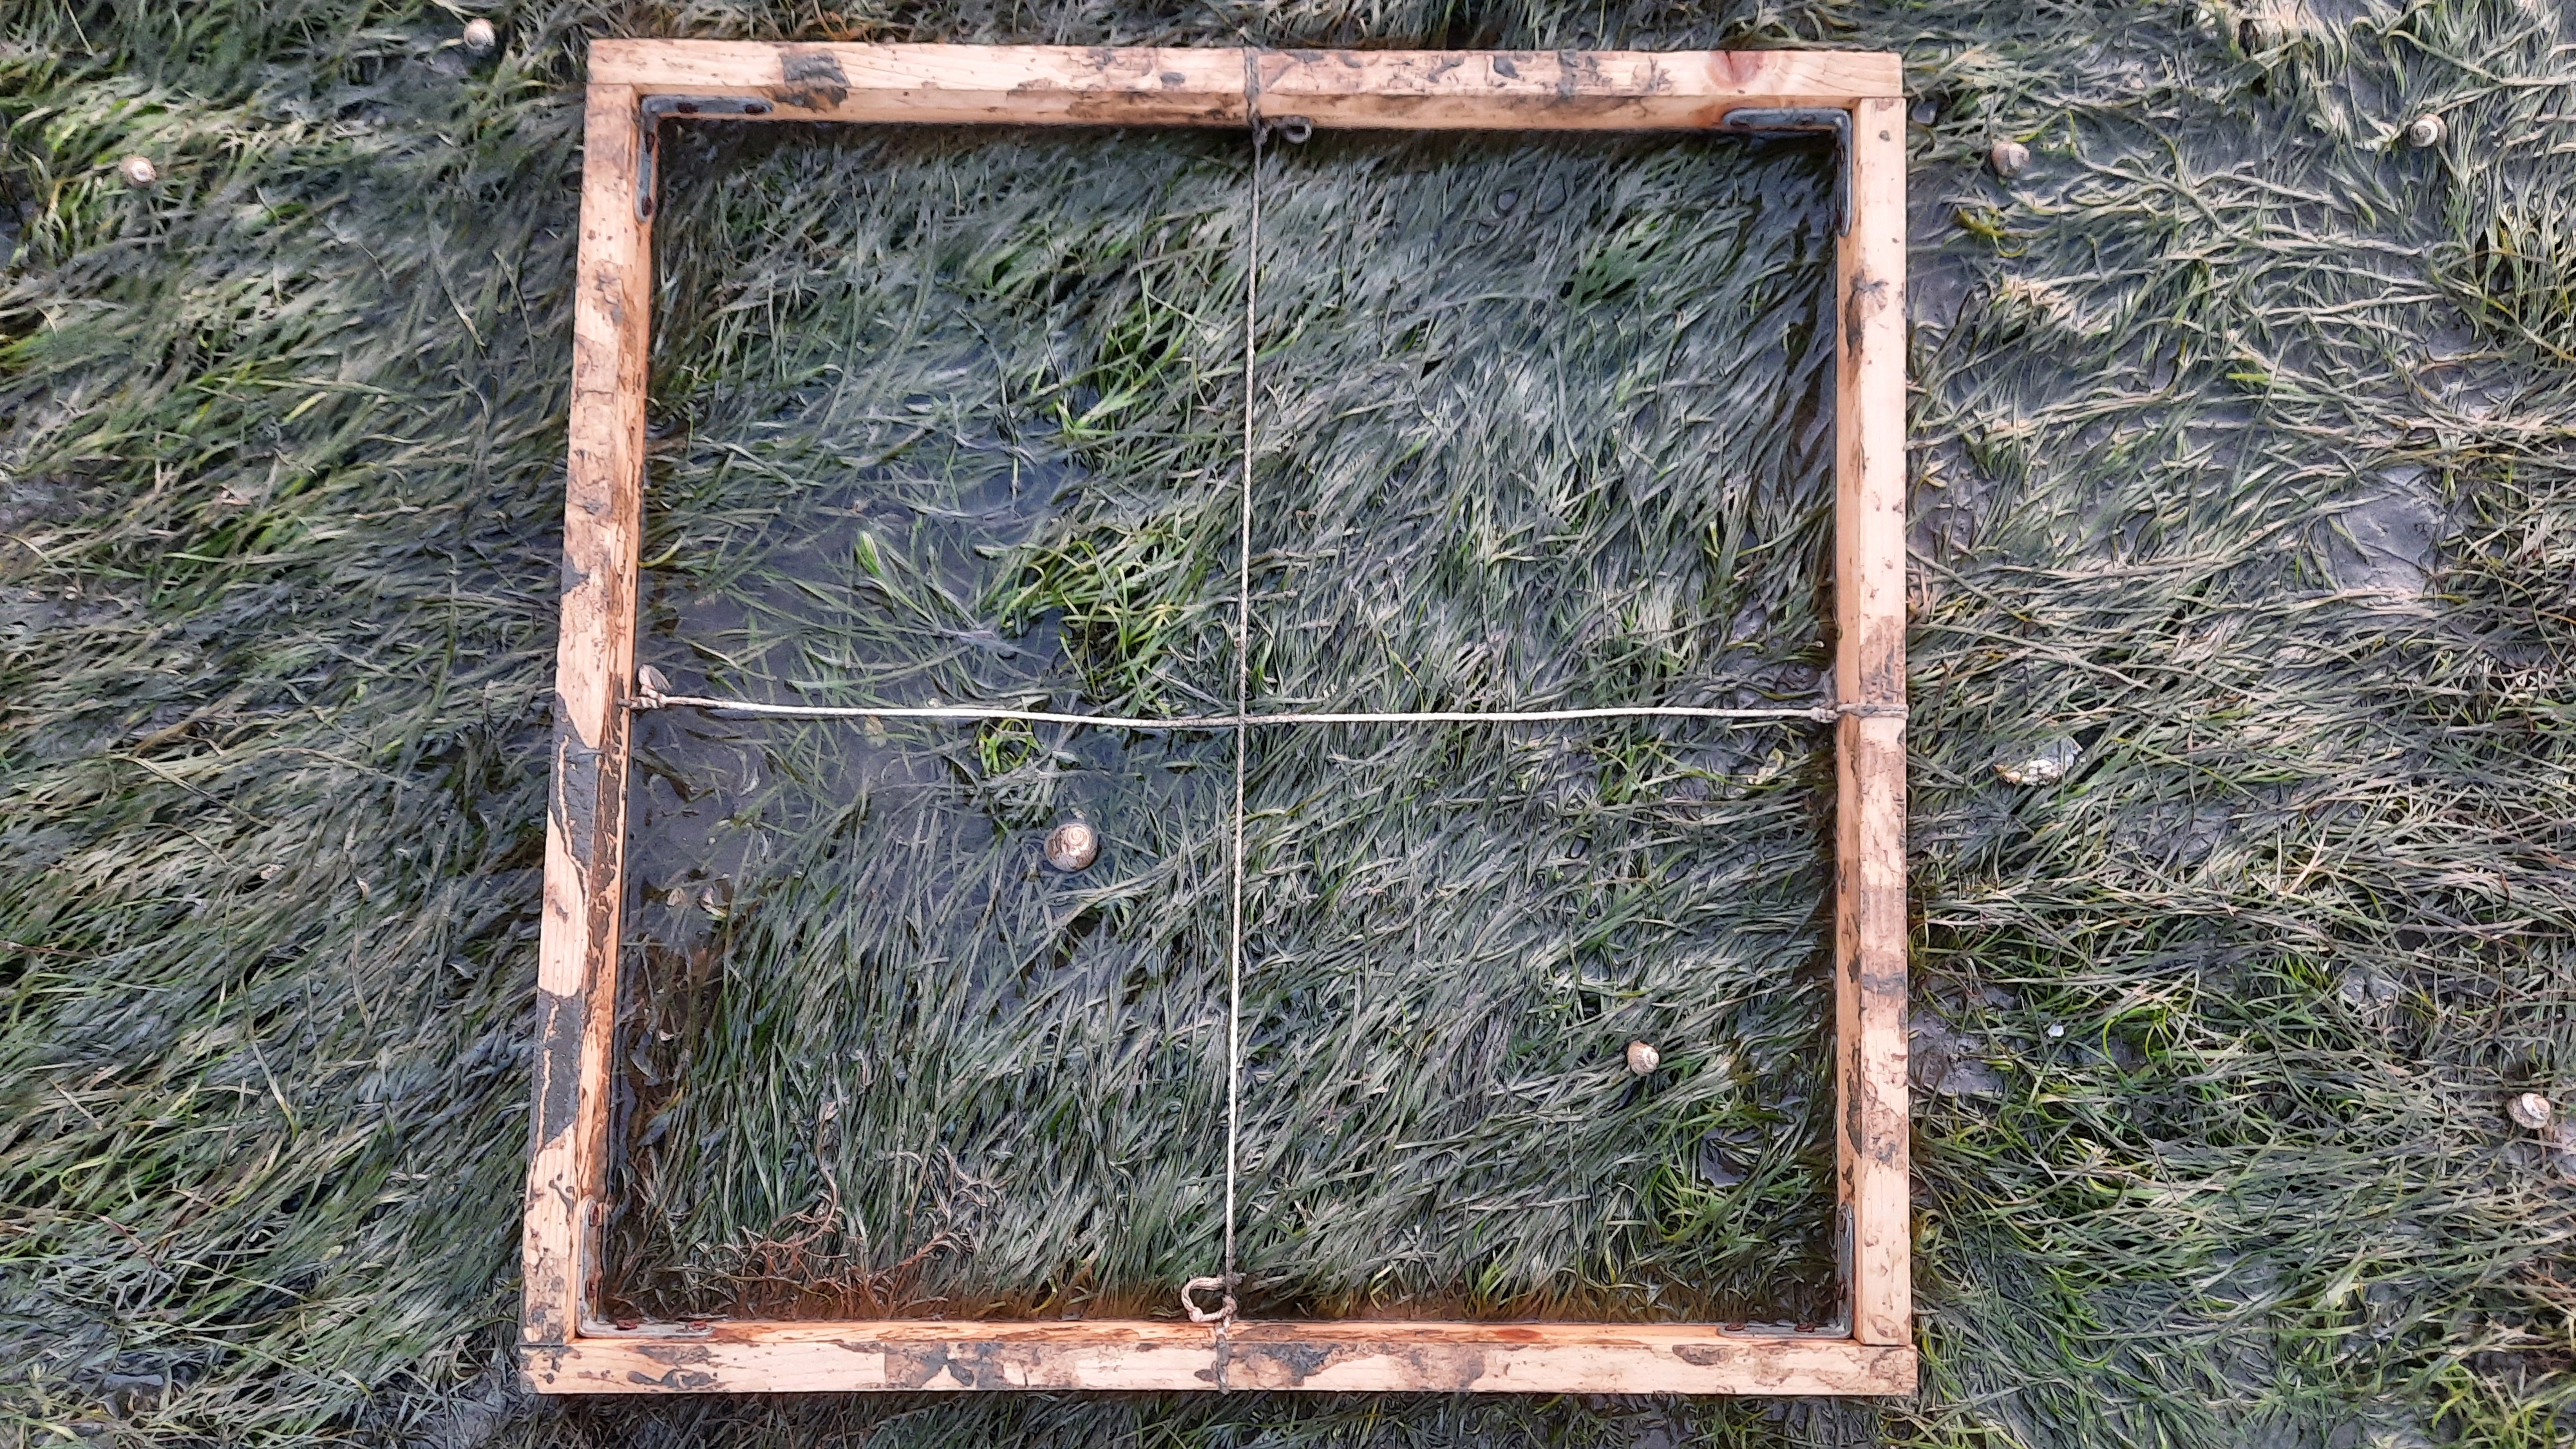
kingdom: Plantae
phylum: Rhodophyta
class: Florideophyceae
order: Gracilariales
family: Gracilariaceae
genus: Gracilaria
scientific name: Gracilaria vermiculophylla
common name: Algae
